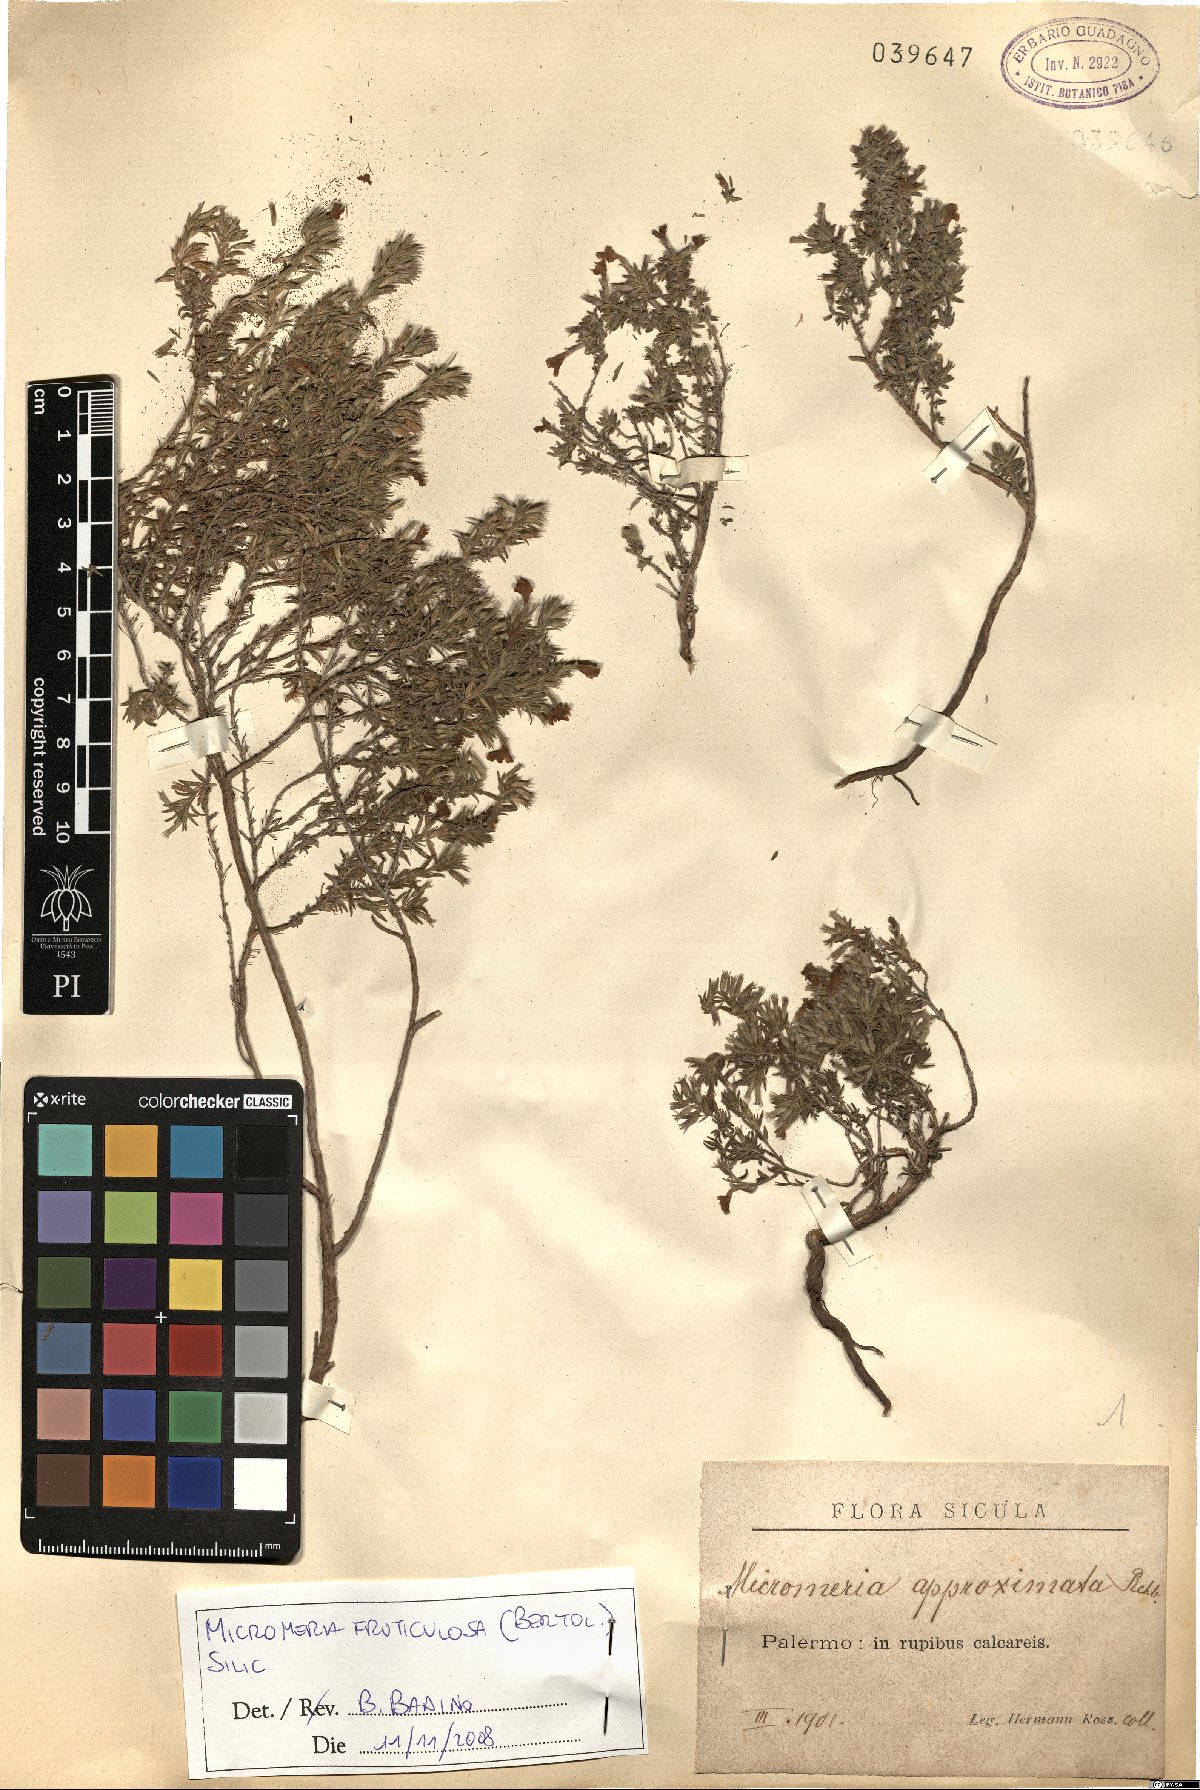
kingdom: Plantae
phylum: Tracheophyta
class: Magnoliopsida
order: Lamiales
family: Lamiaceae
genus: Micromeria
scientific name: Micromeria graeca
